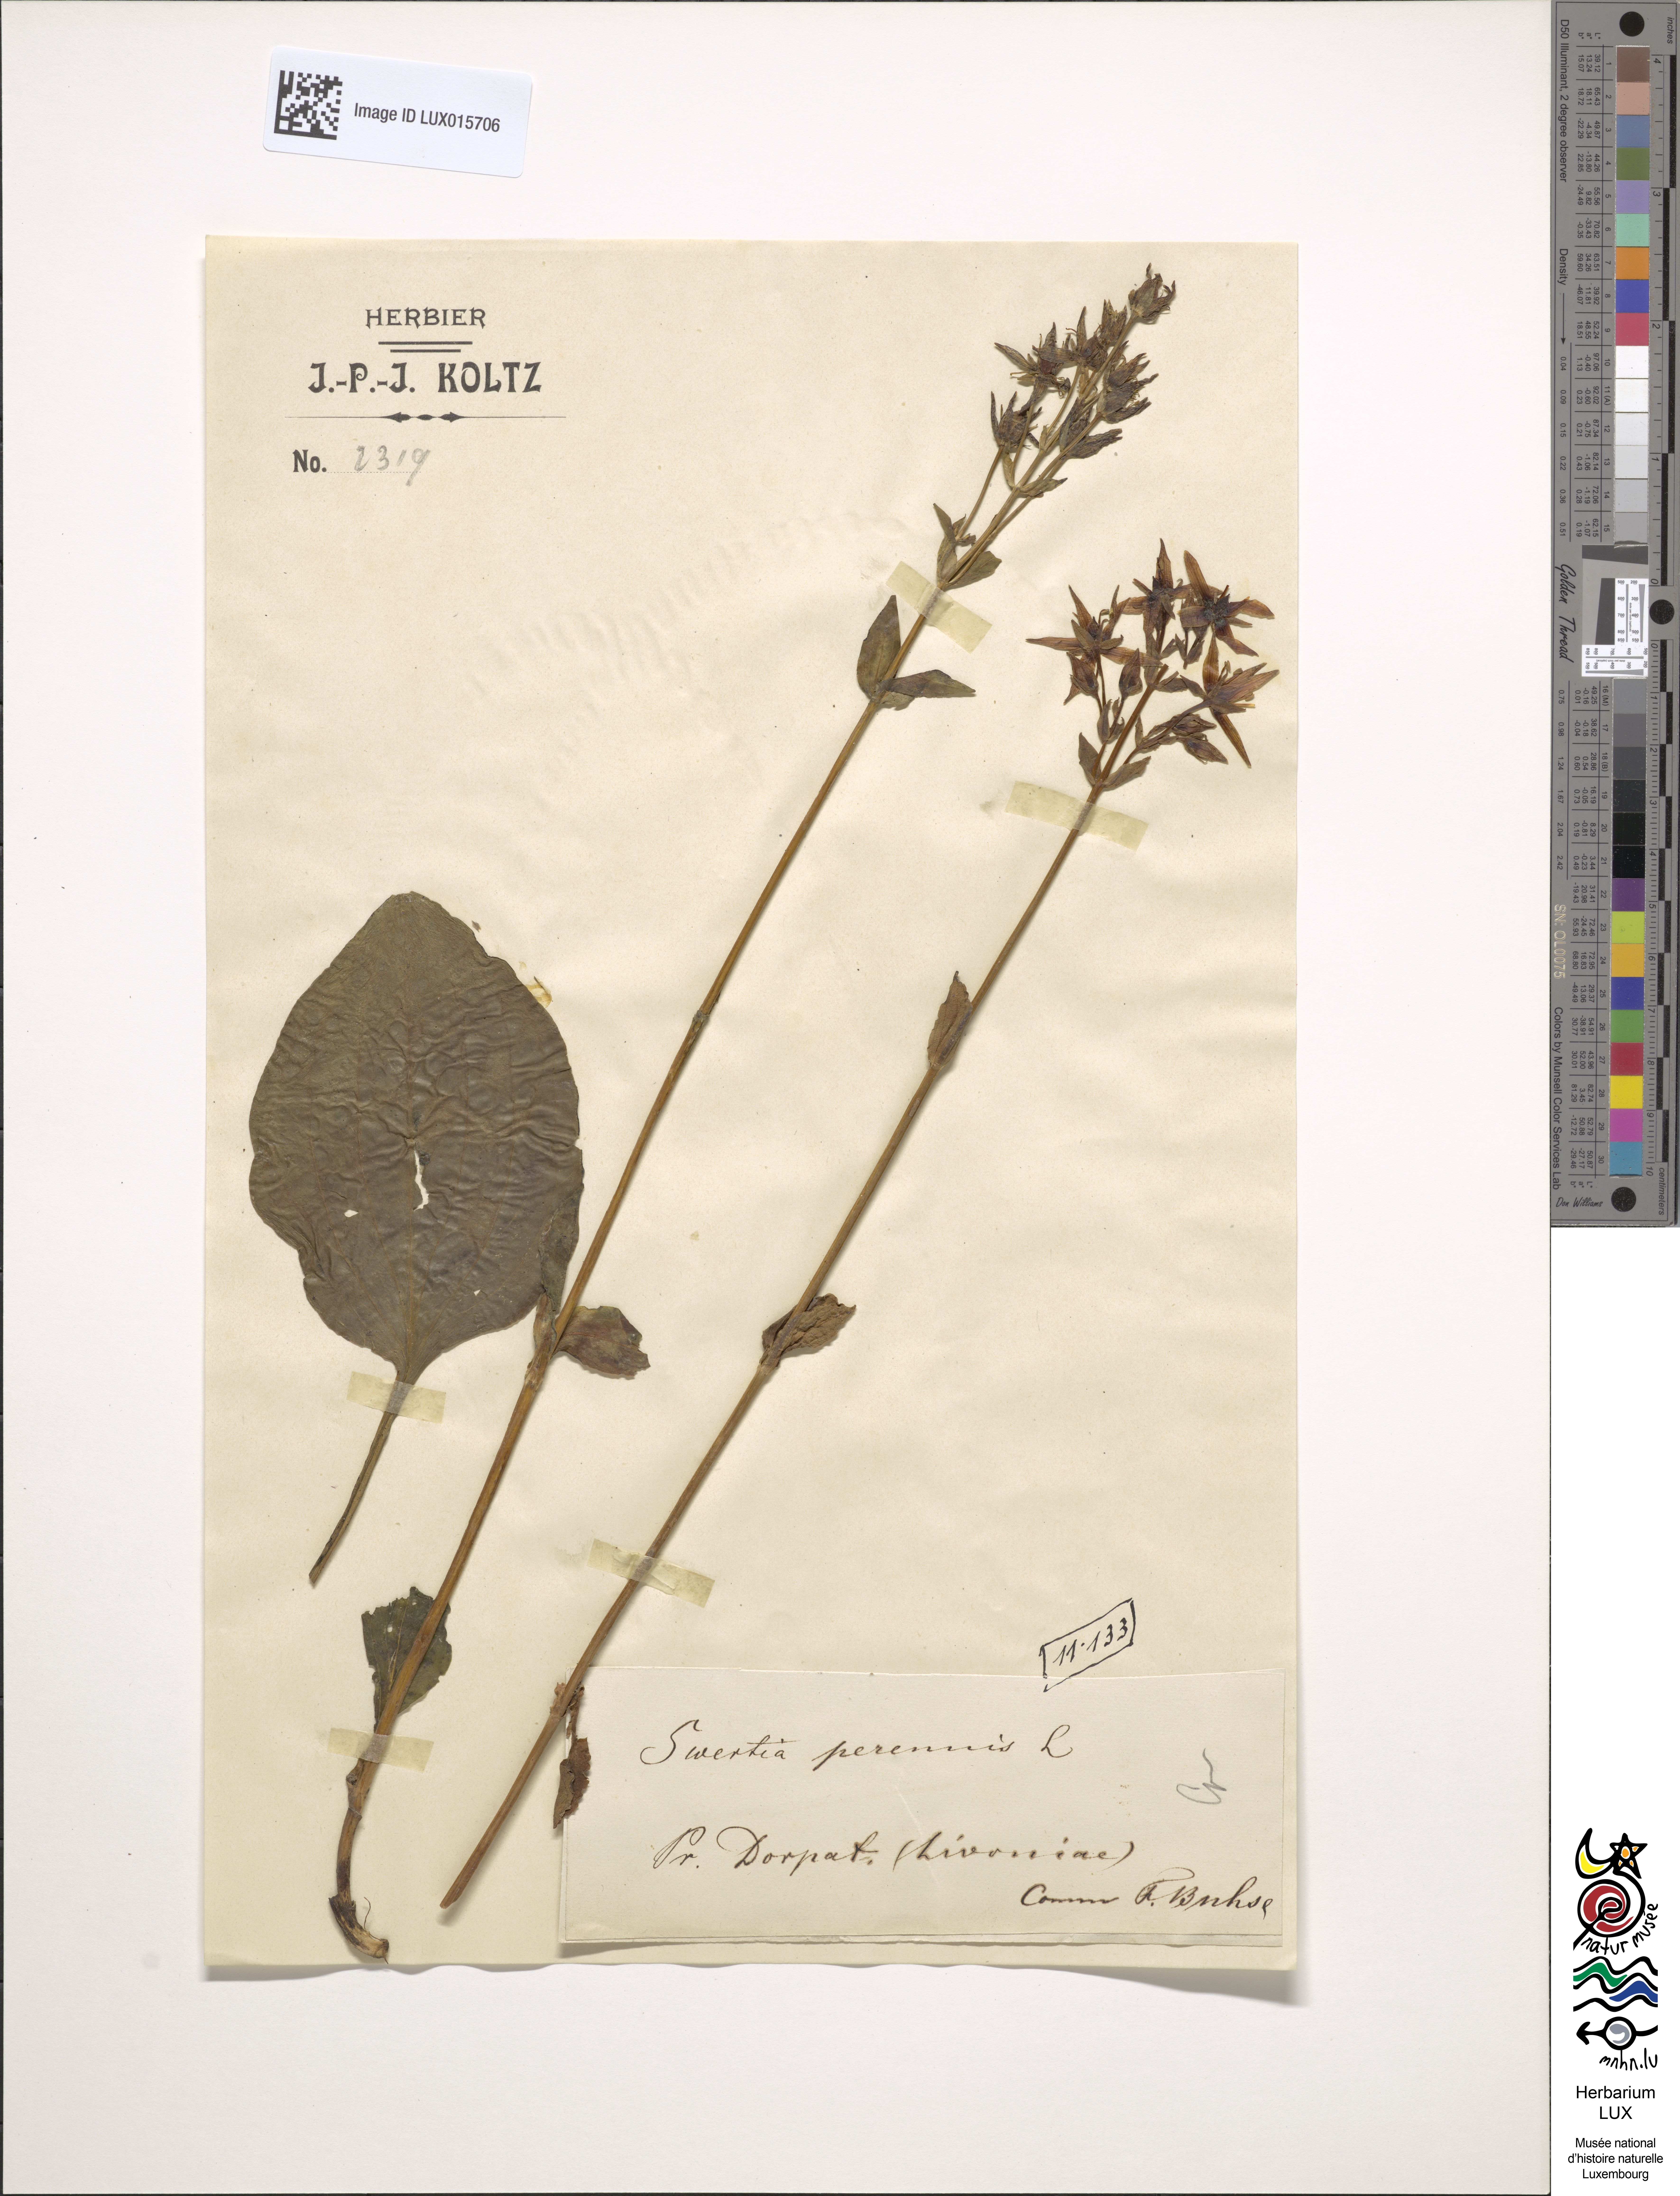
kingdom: Plantae
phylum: Tracheophyta
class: Magnoliopsida
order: Gentianales
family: Gentianaceae
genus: Swertia
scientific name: Swertia perennis
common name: Alpine bog swertia
